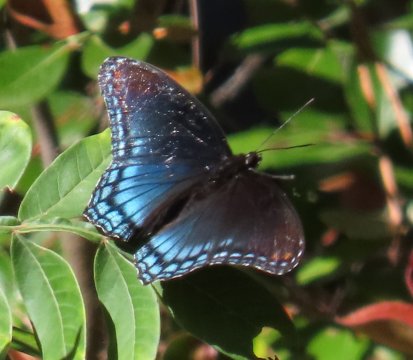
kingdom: Animalia
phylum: Arthropoda
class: Insecta
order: Lepidoptera
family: Nymphalidae
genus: Limenitis
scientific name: Limenitis arthemis
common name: Red-spotted Admiral
